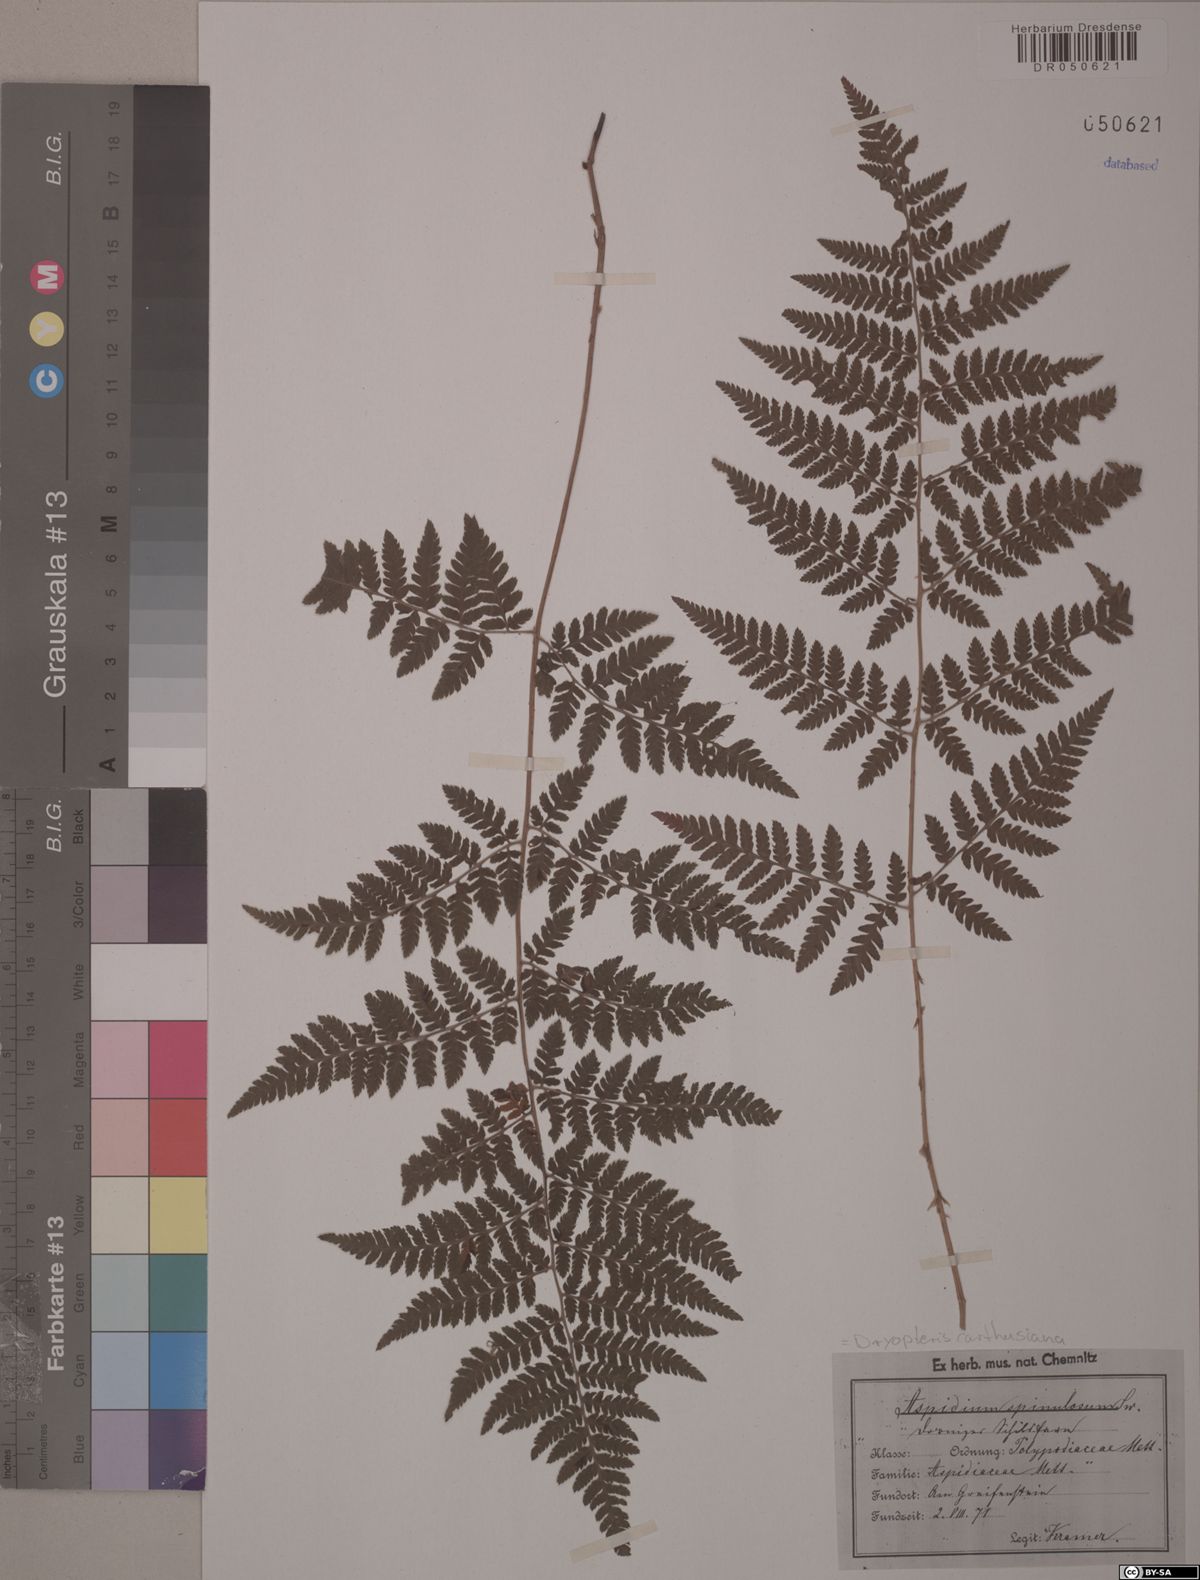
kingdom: Plantae
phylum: Tracheophyta
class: Polypodiopsida
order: Polypodiales
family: Dryopteridaceae
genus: Dryopteris
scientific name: Dryopteris carthusiana
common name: Narrow buckler-fern
